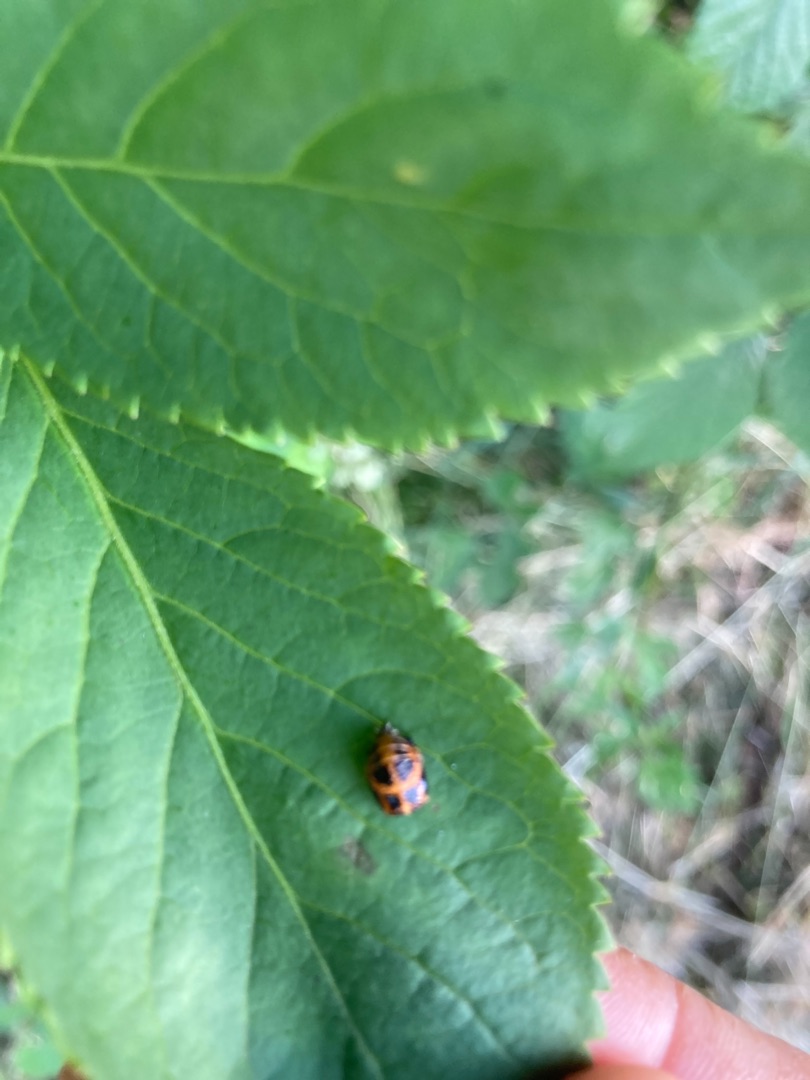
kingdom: Animalia
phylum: Arthropoda
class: Insecta
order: Coleoptera
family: Coccinellidae
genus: Harmonia
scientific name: Harmonia axyridis
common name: Harlekinmariehøne
